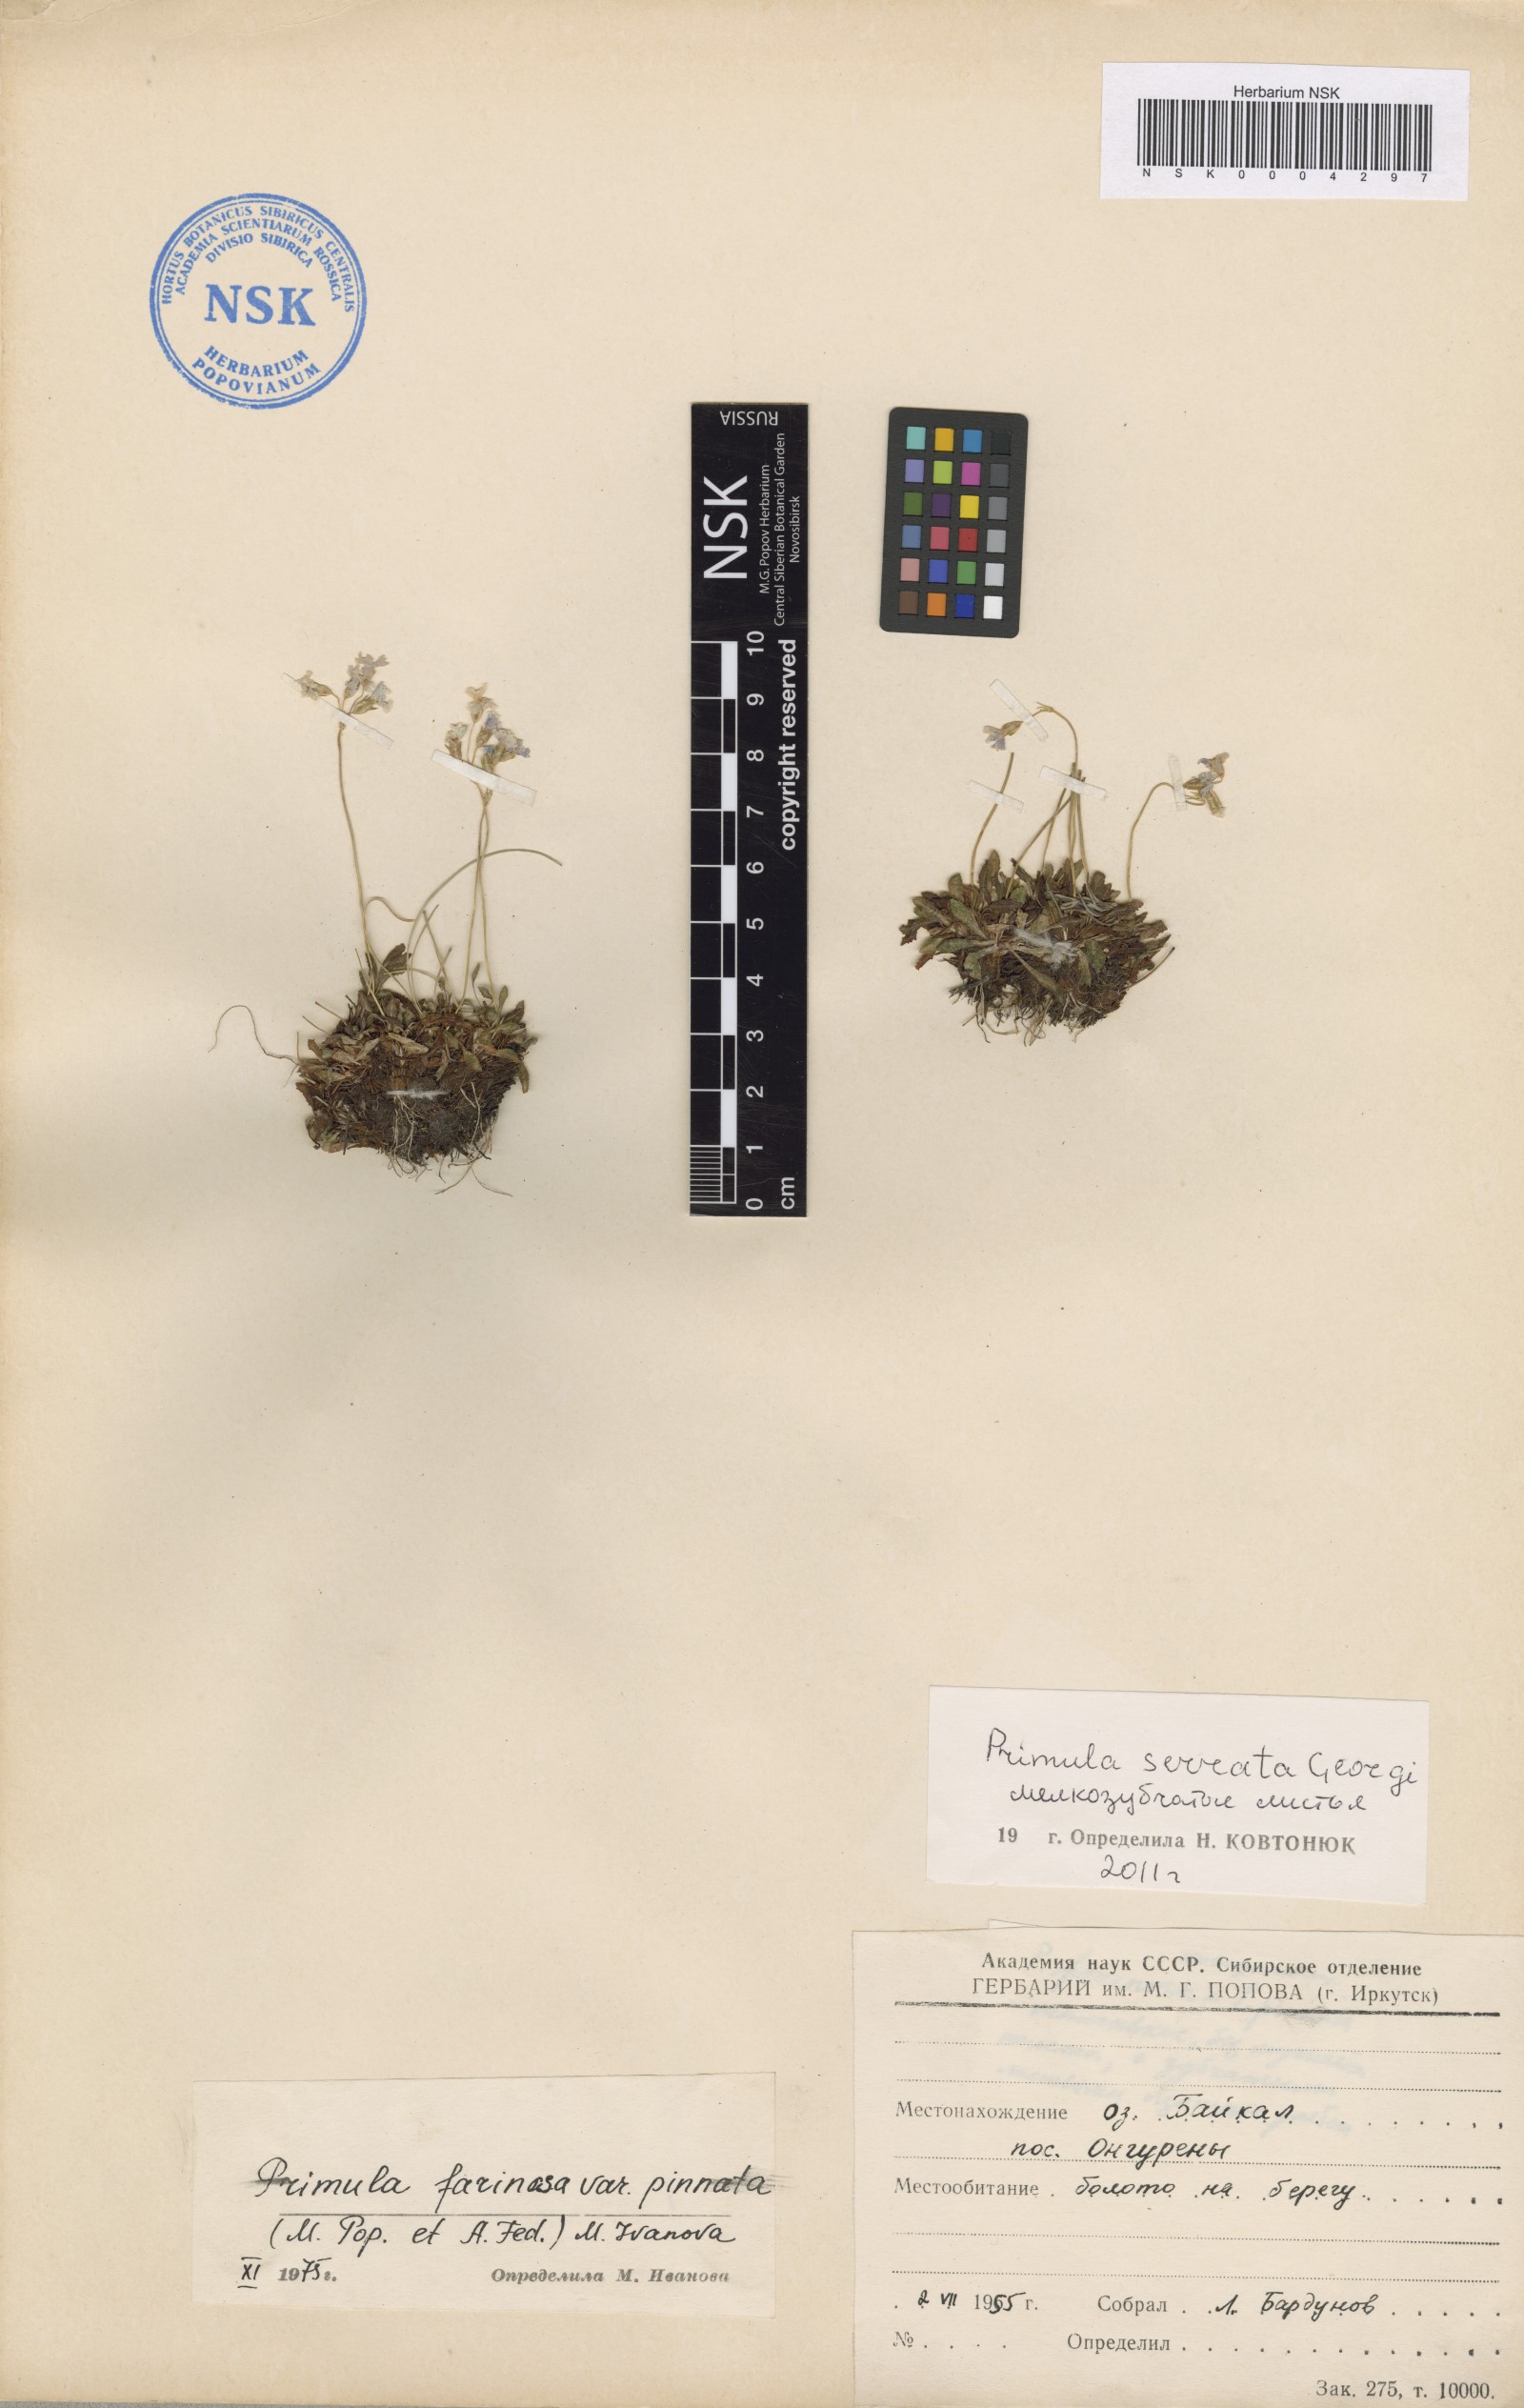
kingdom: Plantae
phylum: Tracheophyta
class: Magnoliopsida
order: Ericales
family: Primulaceae
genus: Primula
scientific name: Primula serrata
